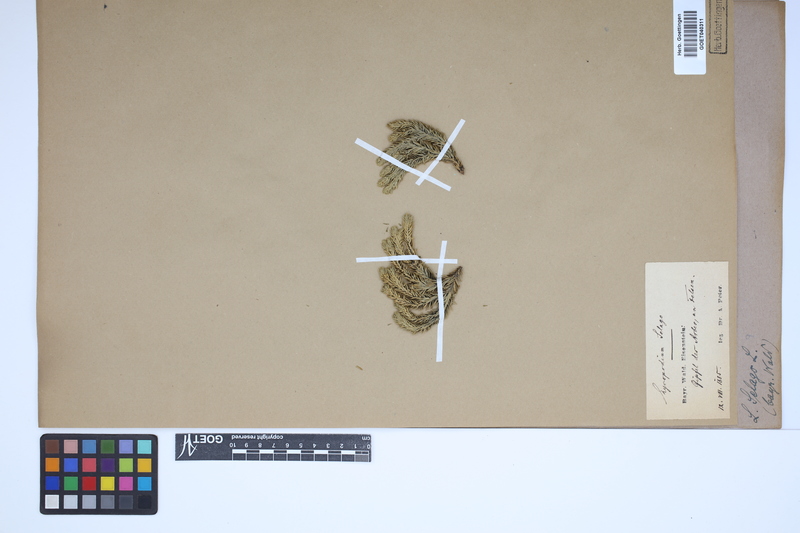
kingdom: Plantae
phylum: Tracheophyta
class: Lycopodiopsida
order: Lycopodiales
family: Lycopodiaceae
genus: Huperzia
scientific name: Huperzia selago
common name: Northern firmoss
